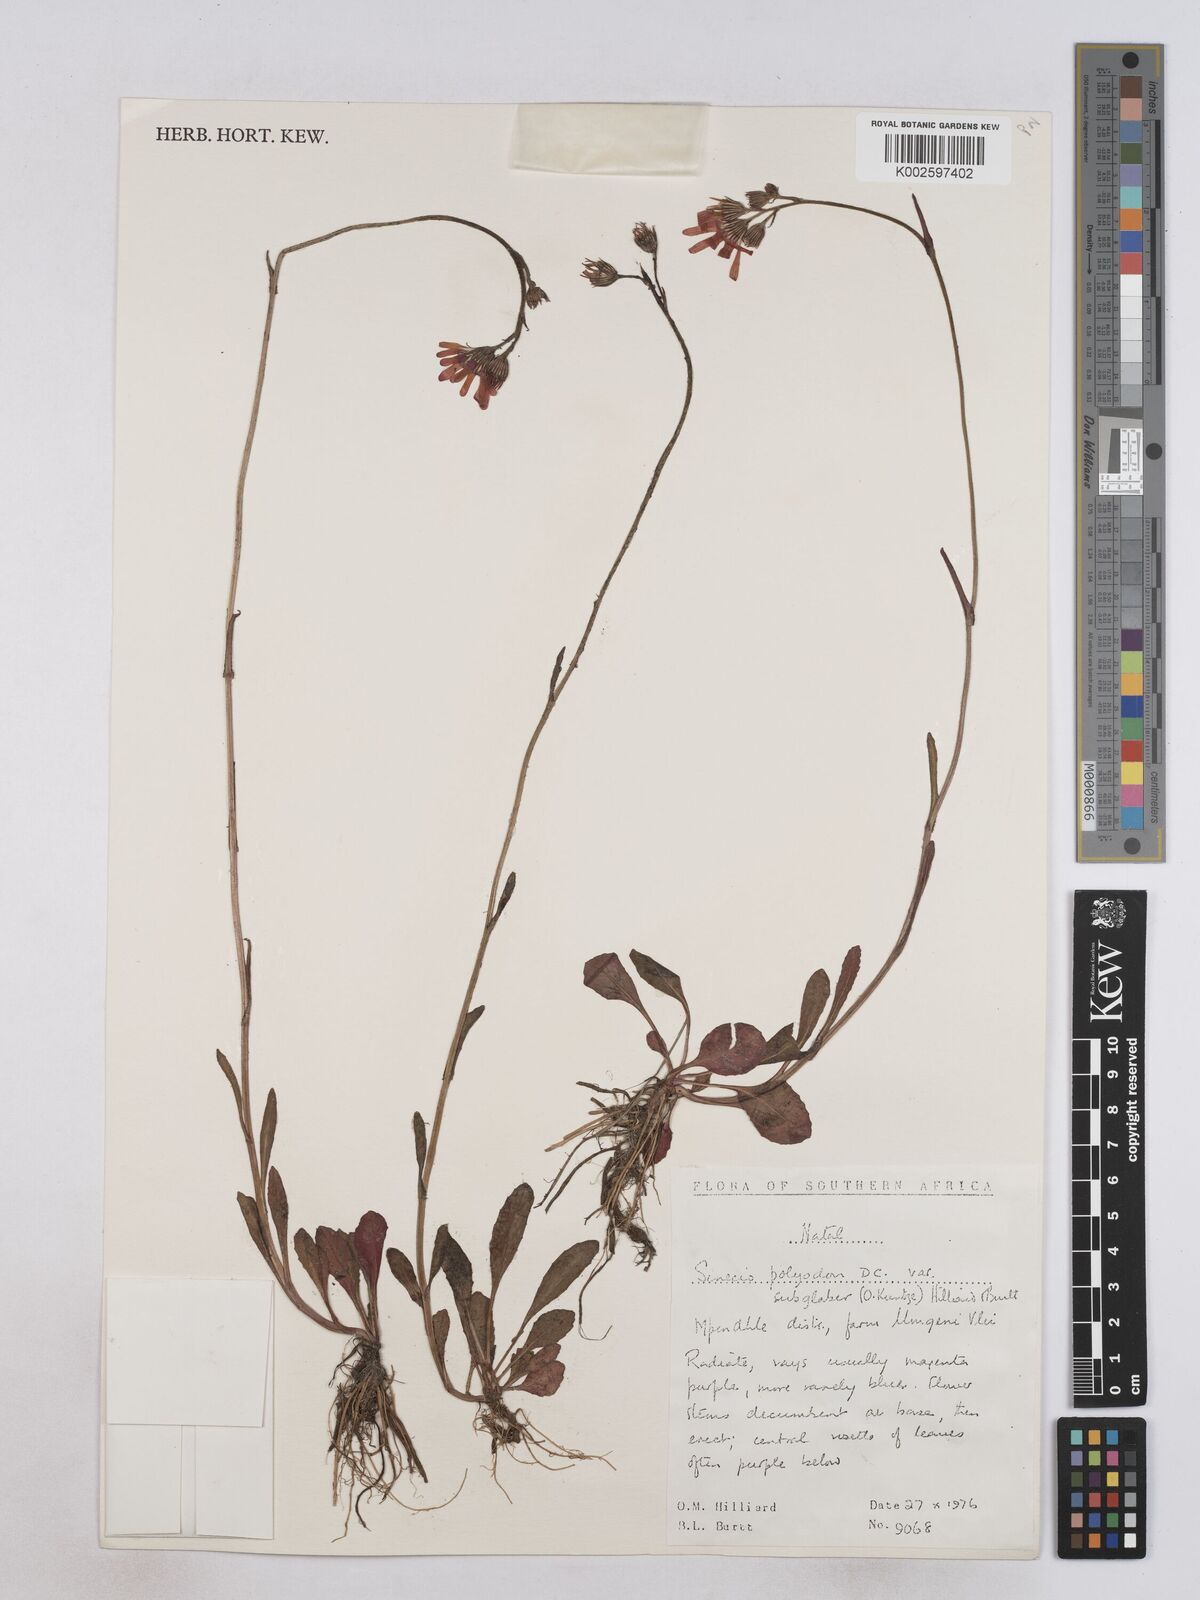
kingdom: Plantae
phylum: Tracheophyta
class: Magnoliopsida
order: Asterales
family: Asteraceae
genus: Senecio
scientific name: Senecio polyodon
